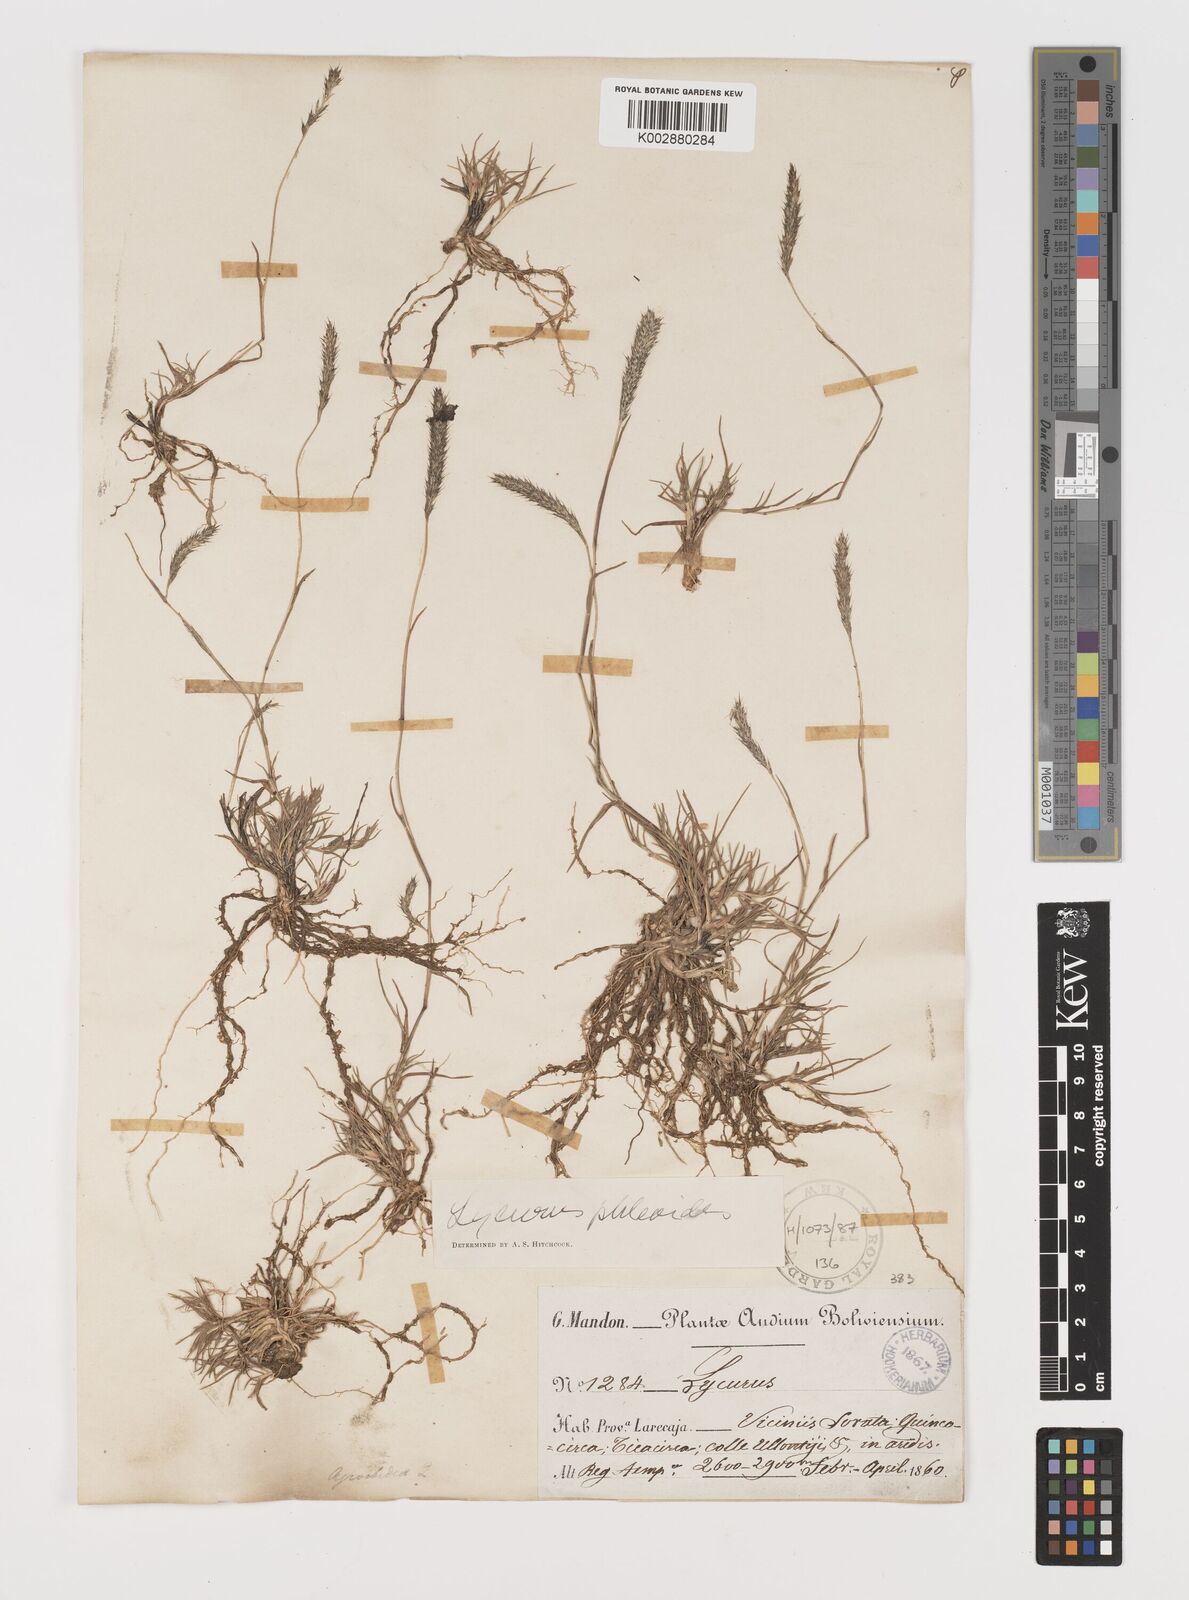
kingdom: Plantae
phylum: Tracheophyta
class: Liliopsida
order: Poales
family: Poaceae
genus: Muhlenbergia
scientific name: Muhlenbergia phleoides
